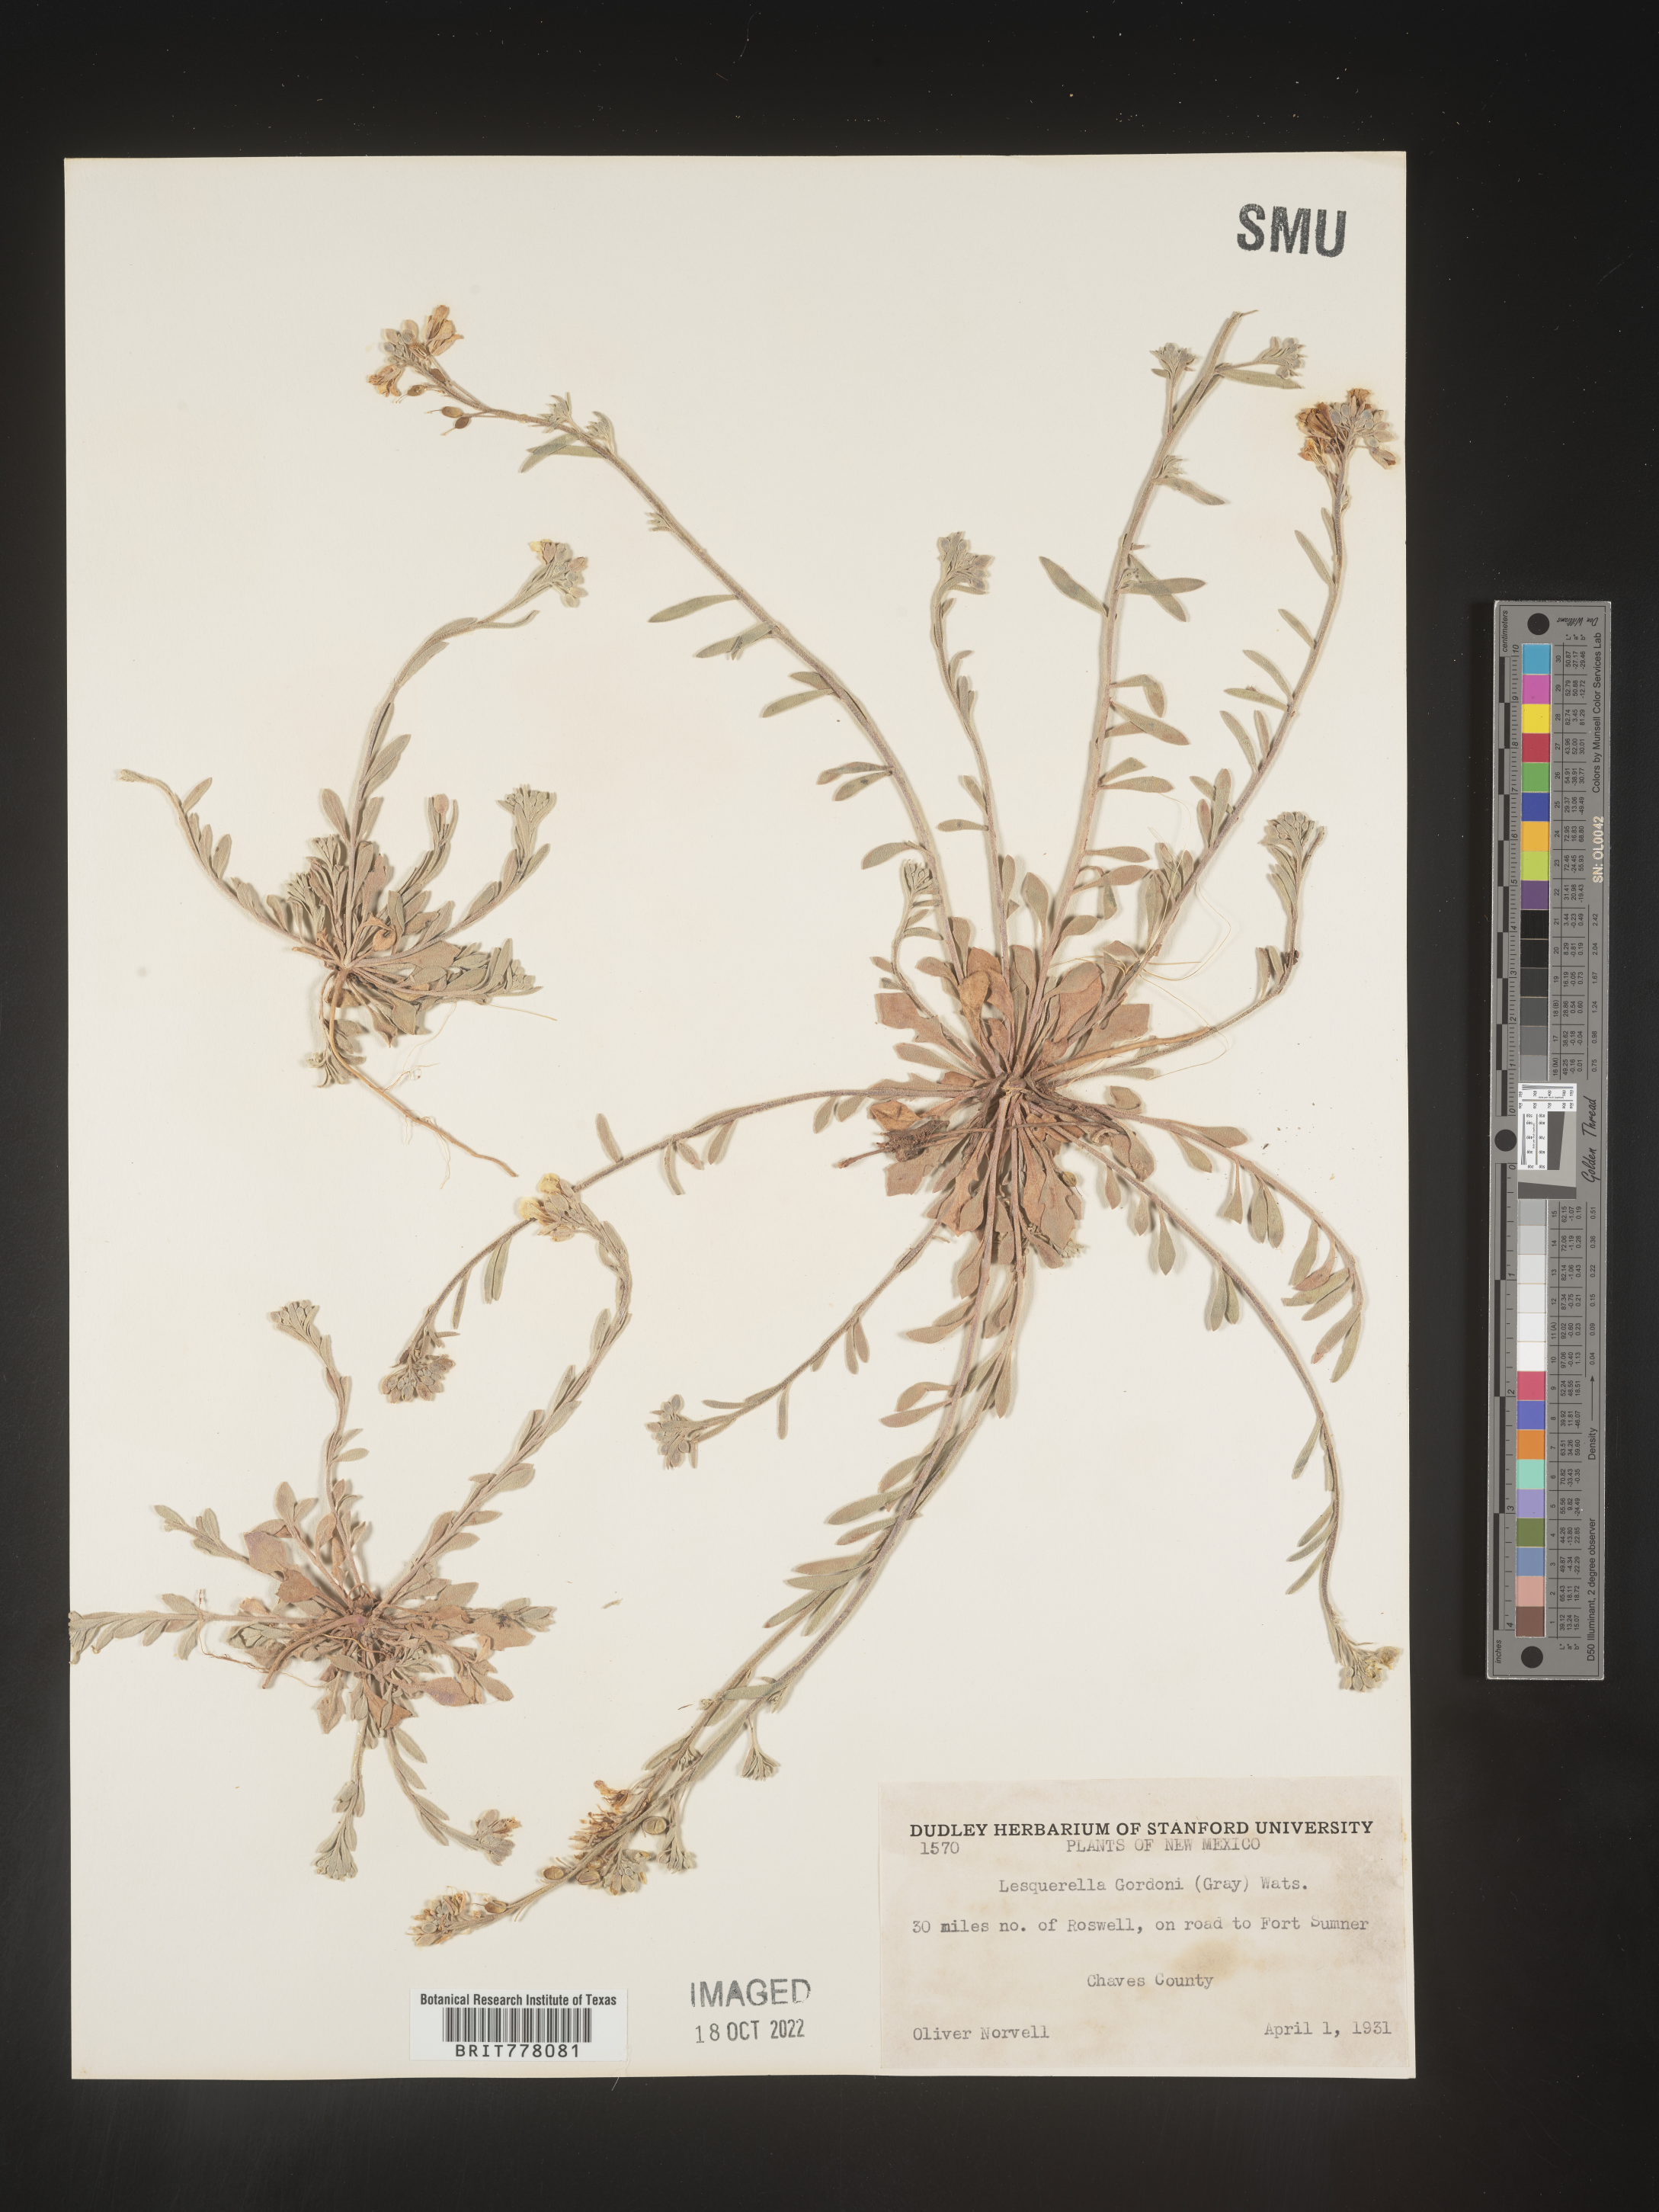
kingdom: Chromista
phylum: Cercozoa
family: Psammonobiotidae
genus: Lesquerella
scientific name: Lesquerella
